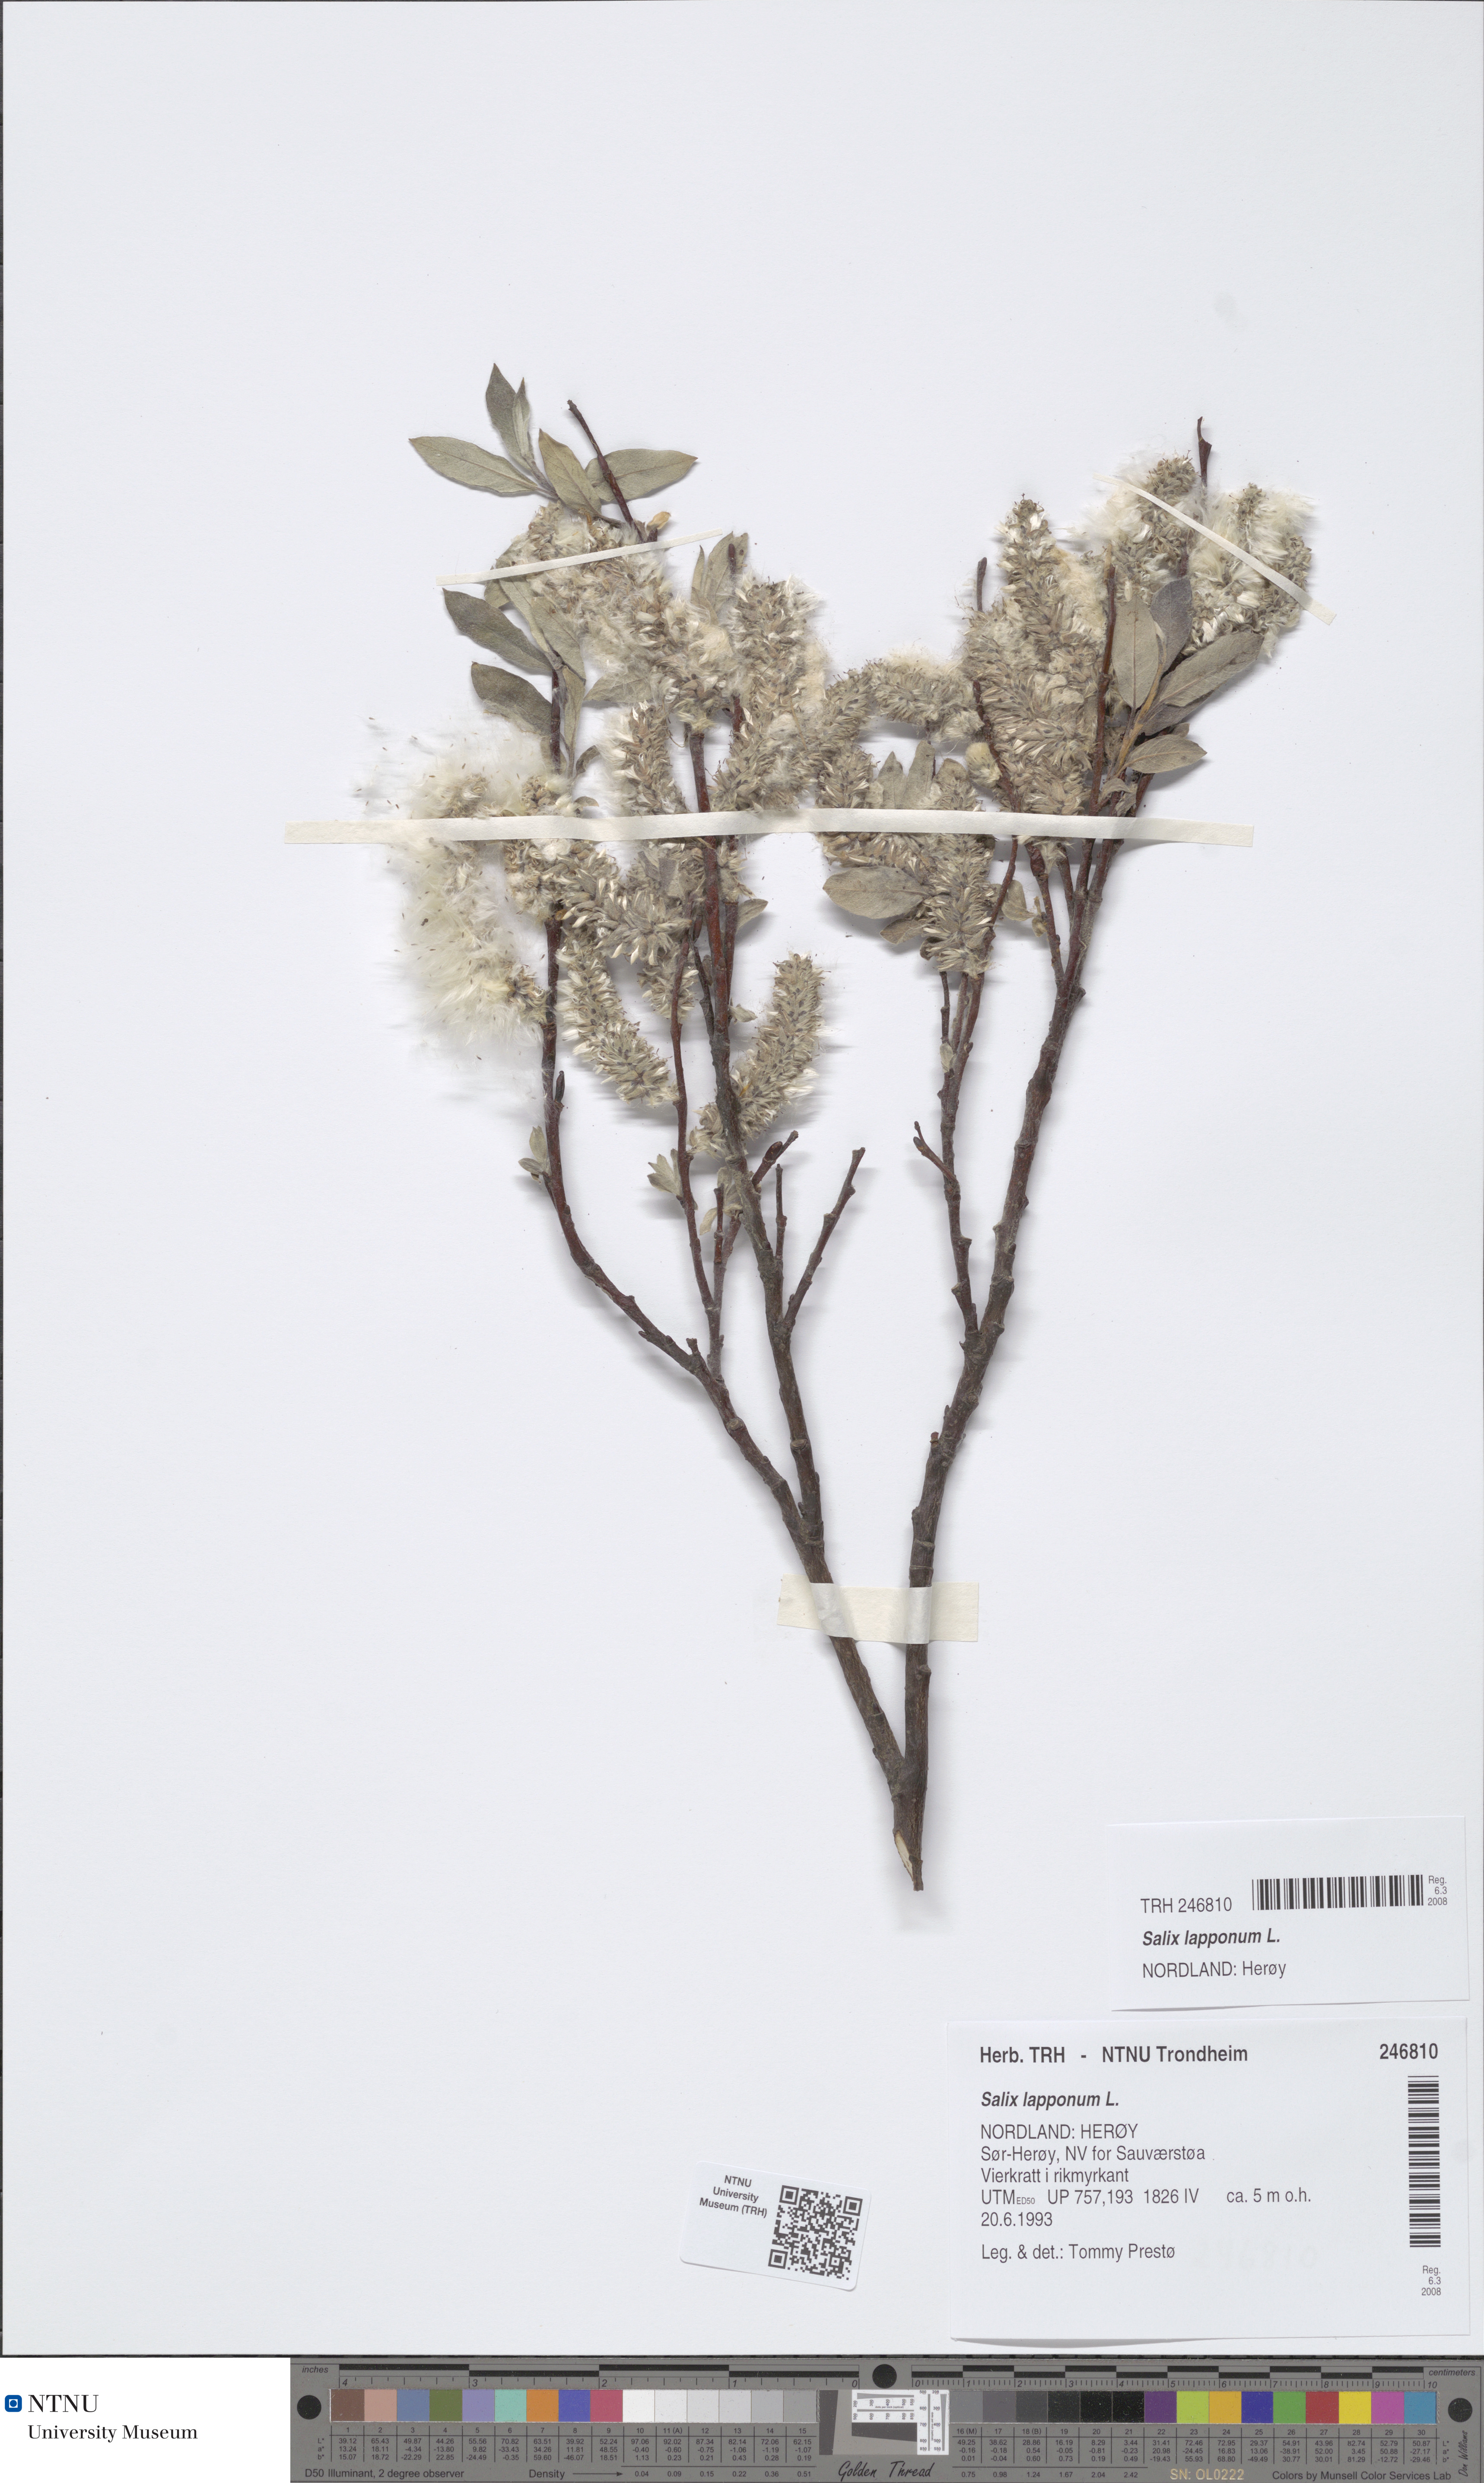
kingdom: Plantae
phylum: Tracheophyta
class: Magnoliopsida
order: Malpighiales
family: Salicaceae
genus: Salix
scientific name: Salix lapponum
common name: Downy willow
